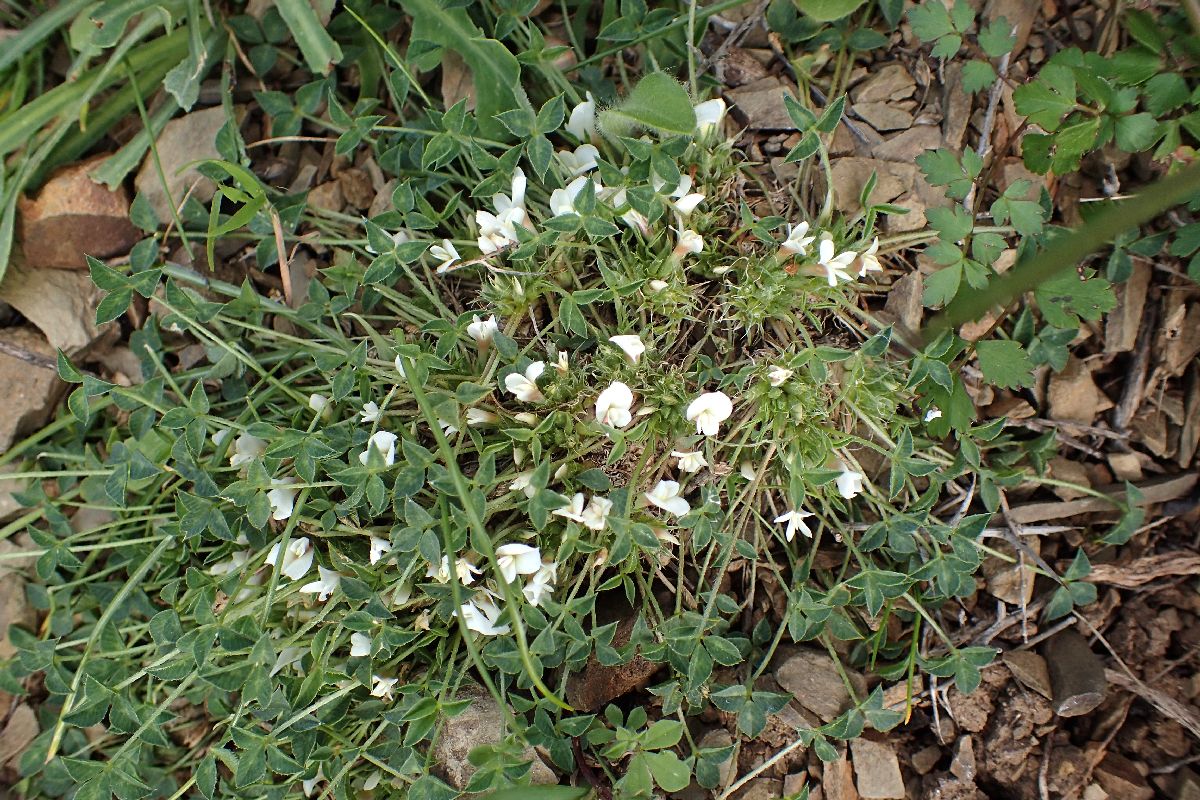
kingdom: Plantae
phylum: Tracheophyta
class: Magnoliopsida
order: Fabales
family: Fabaceae
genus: Trifolium
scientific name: Trifolium uniflorum
